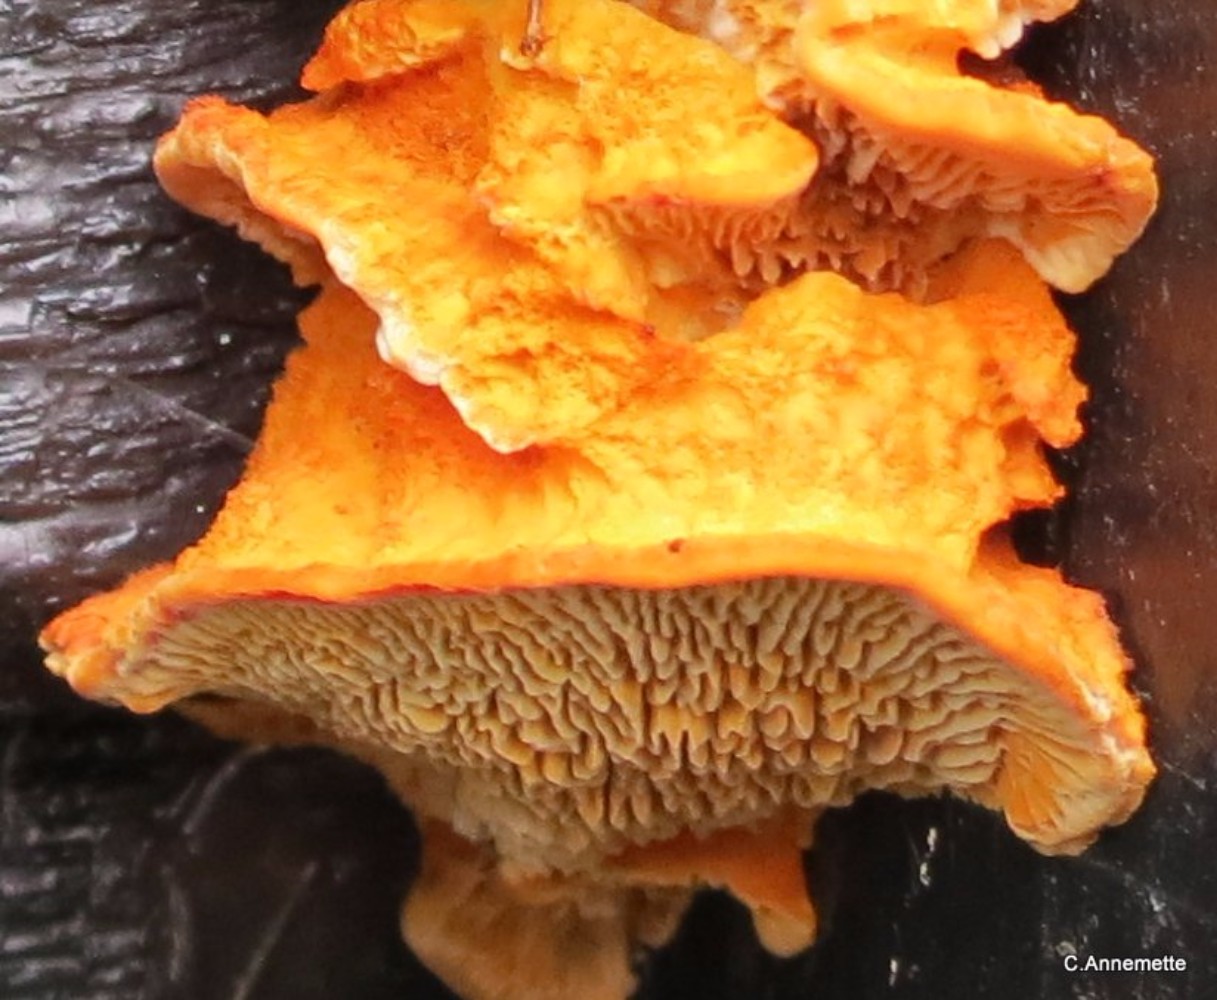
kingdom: Fungi
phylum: Basidiomycota
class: Agaricomycetes
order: Gloeophyllales
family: Gloeophyllaceae
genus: Gloeophyllum
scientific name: Gloeophyllum sepiarium
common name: fyrre-korkhat
